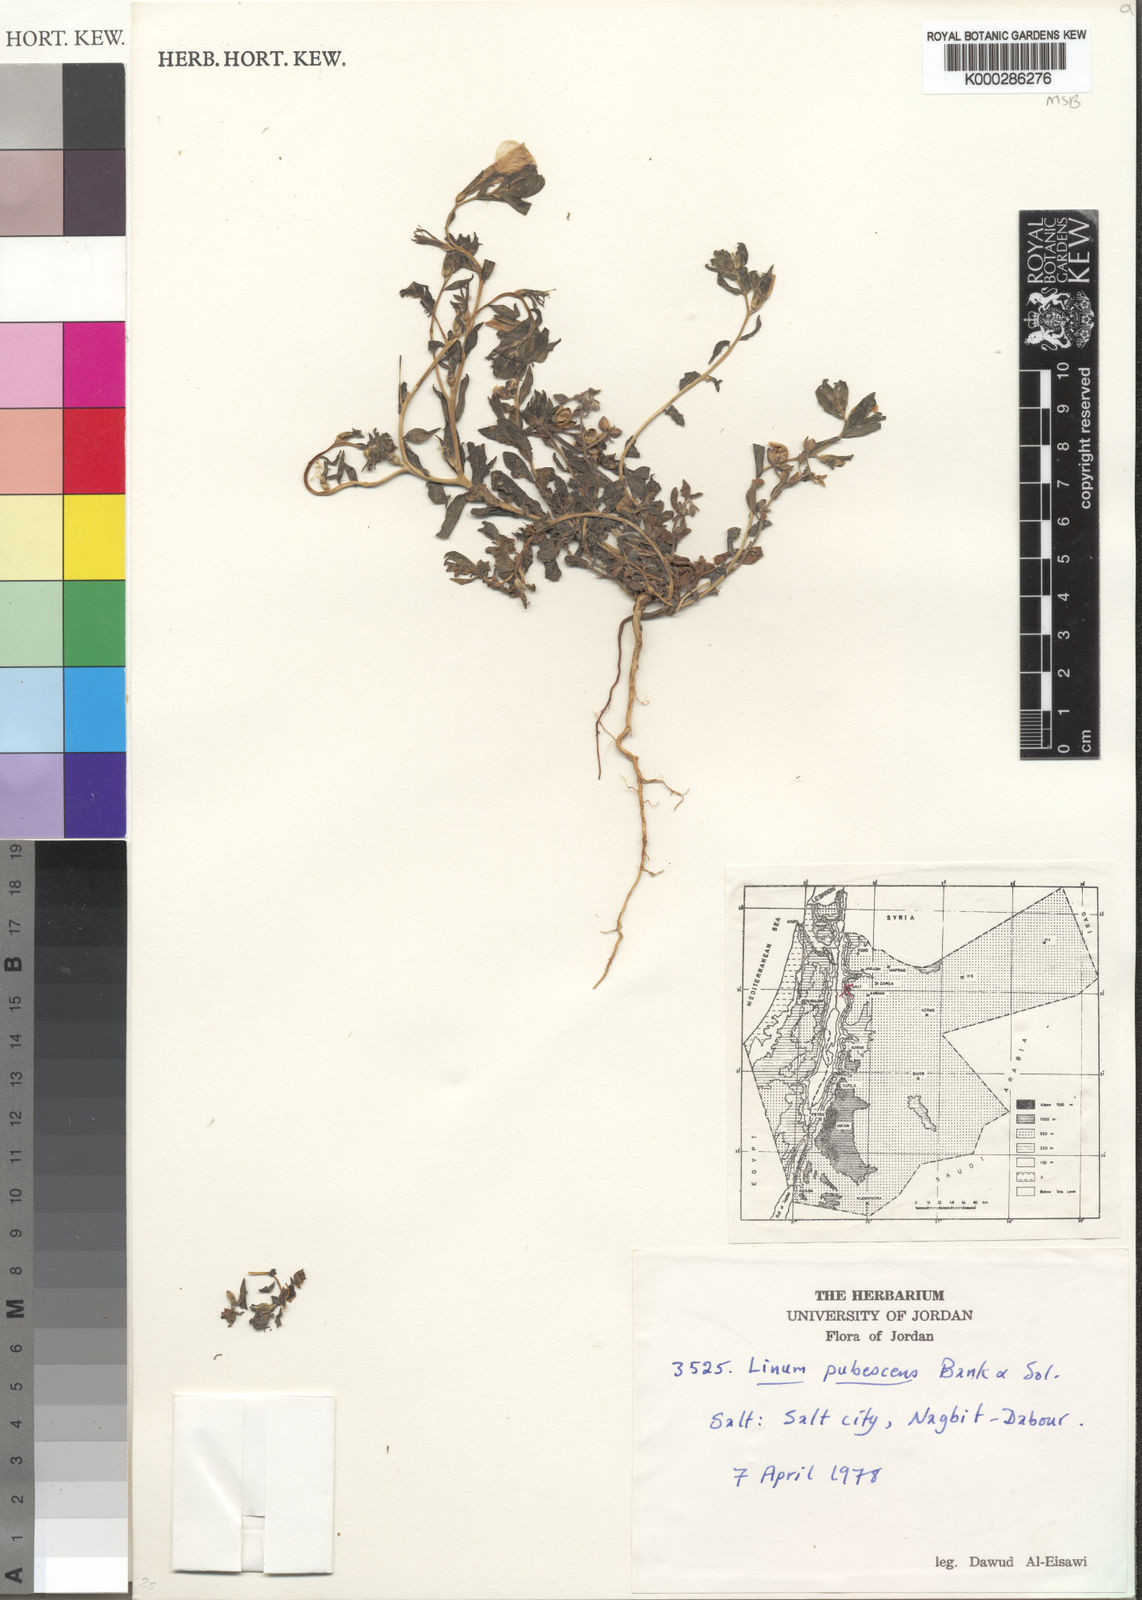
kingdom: Plantae
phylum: Tracheophyta
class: Magnoliopsida
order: Malpighiales
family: Linaceae
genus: Linum
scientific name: Linum pubescens
